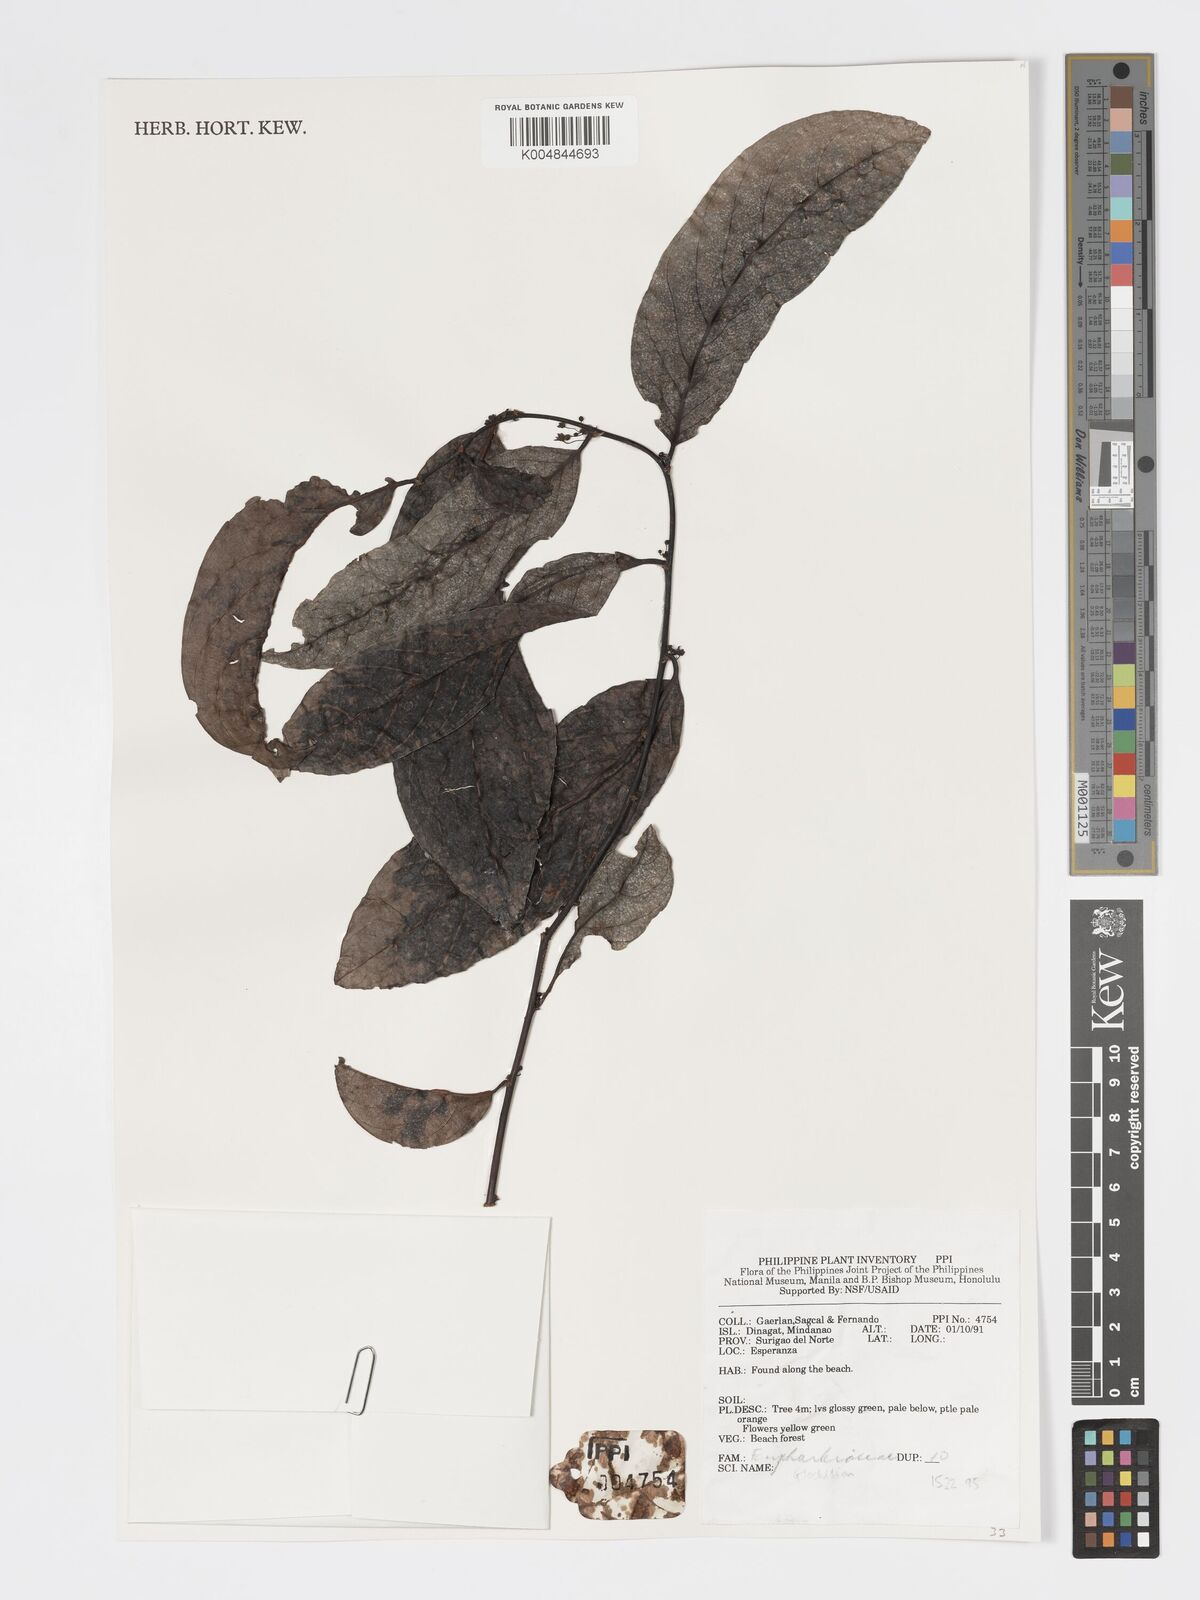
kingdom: Plantae
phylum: Tracheophyta
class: Magnoliopsida
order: Malpighiales
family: Phyllanthaceae
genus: Glochidion
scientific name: Glochidion
